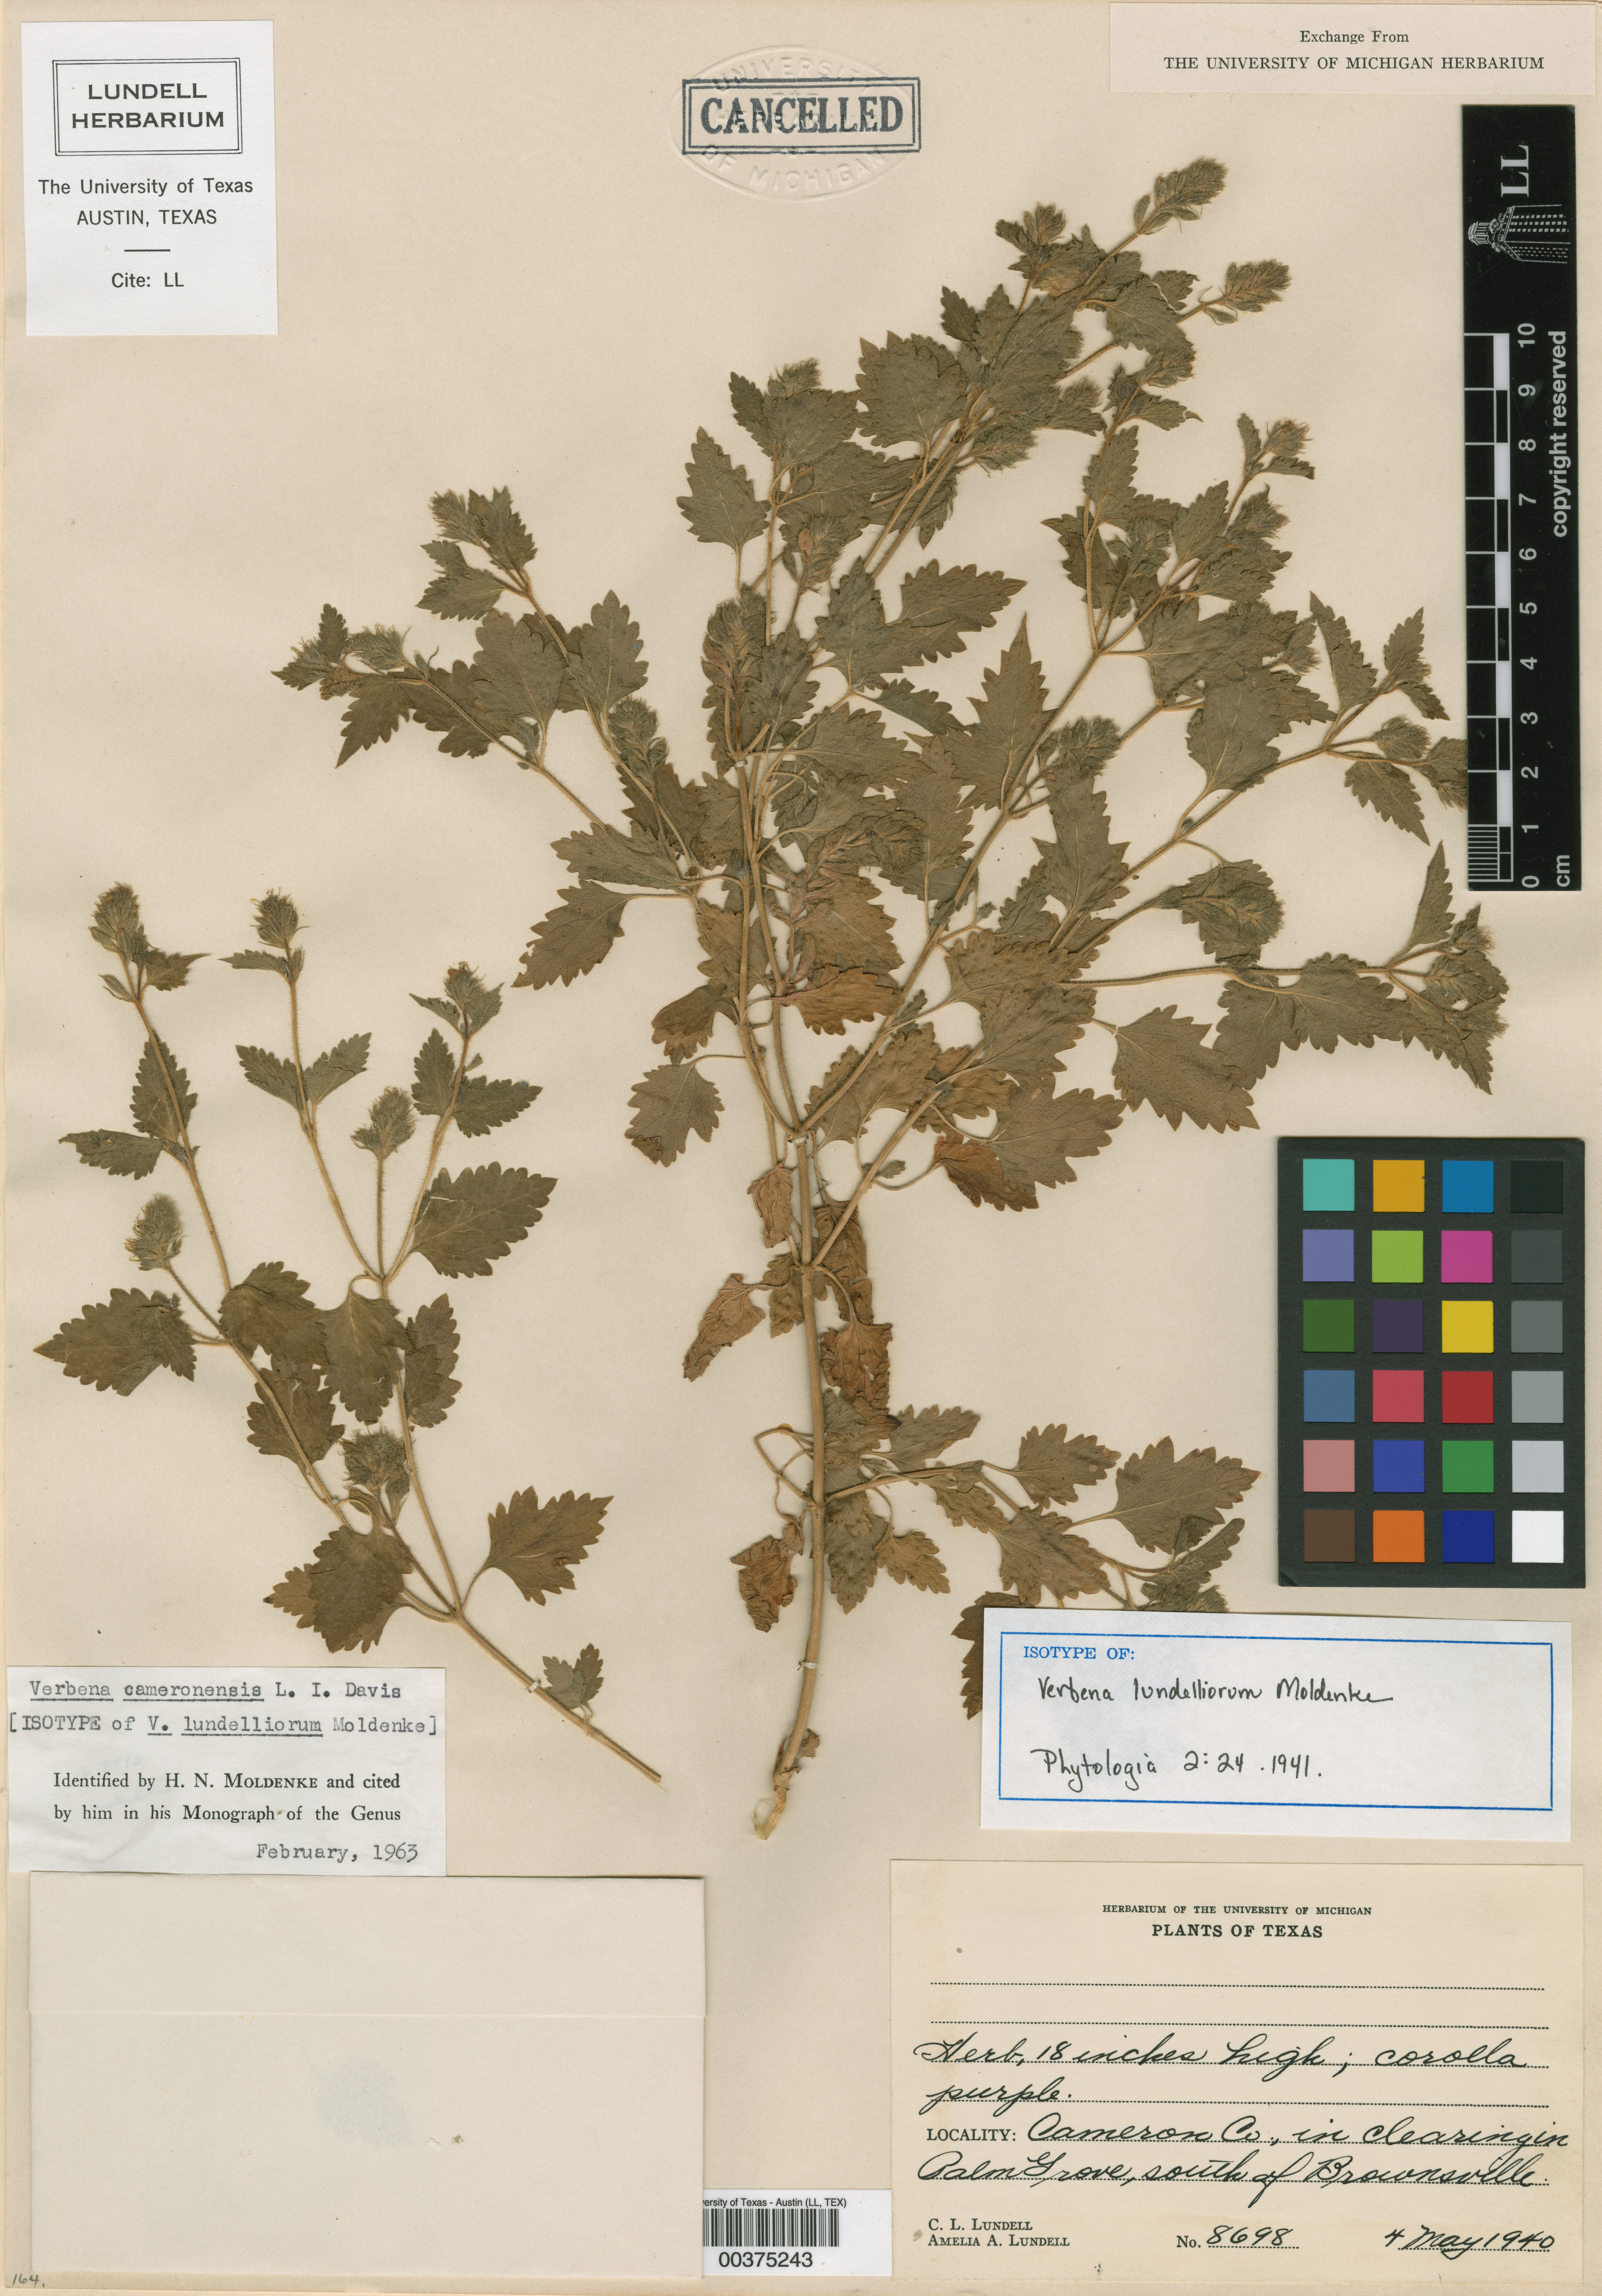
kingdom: Plantae
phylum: Tracheophyta
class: Magnoliopsida
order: Lamiales
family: Verbenaceae
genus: Verbena
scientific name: Verbena delticola
